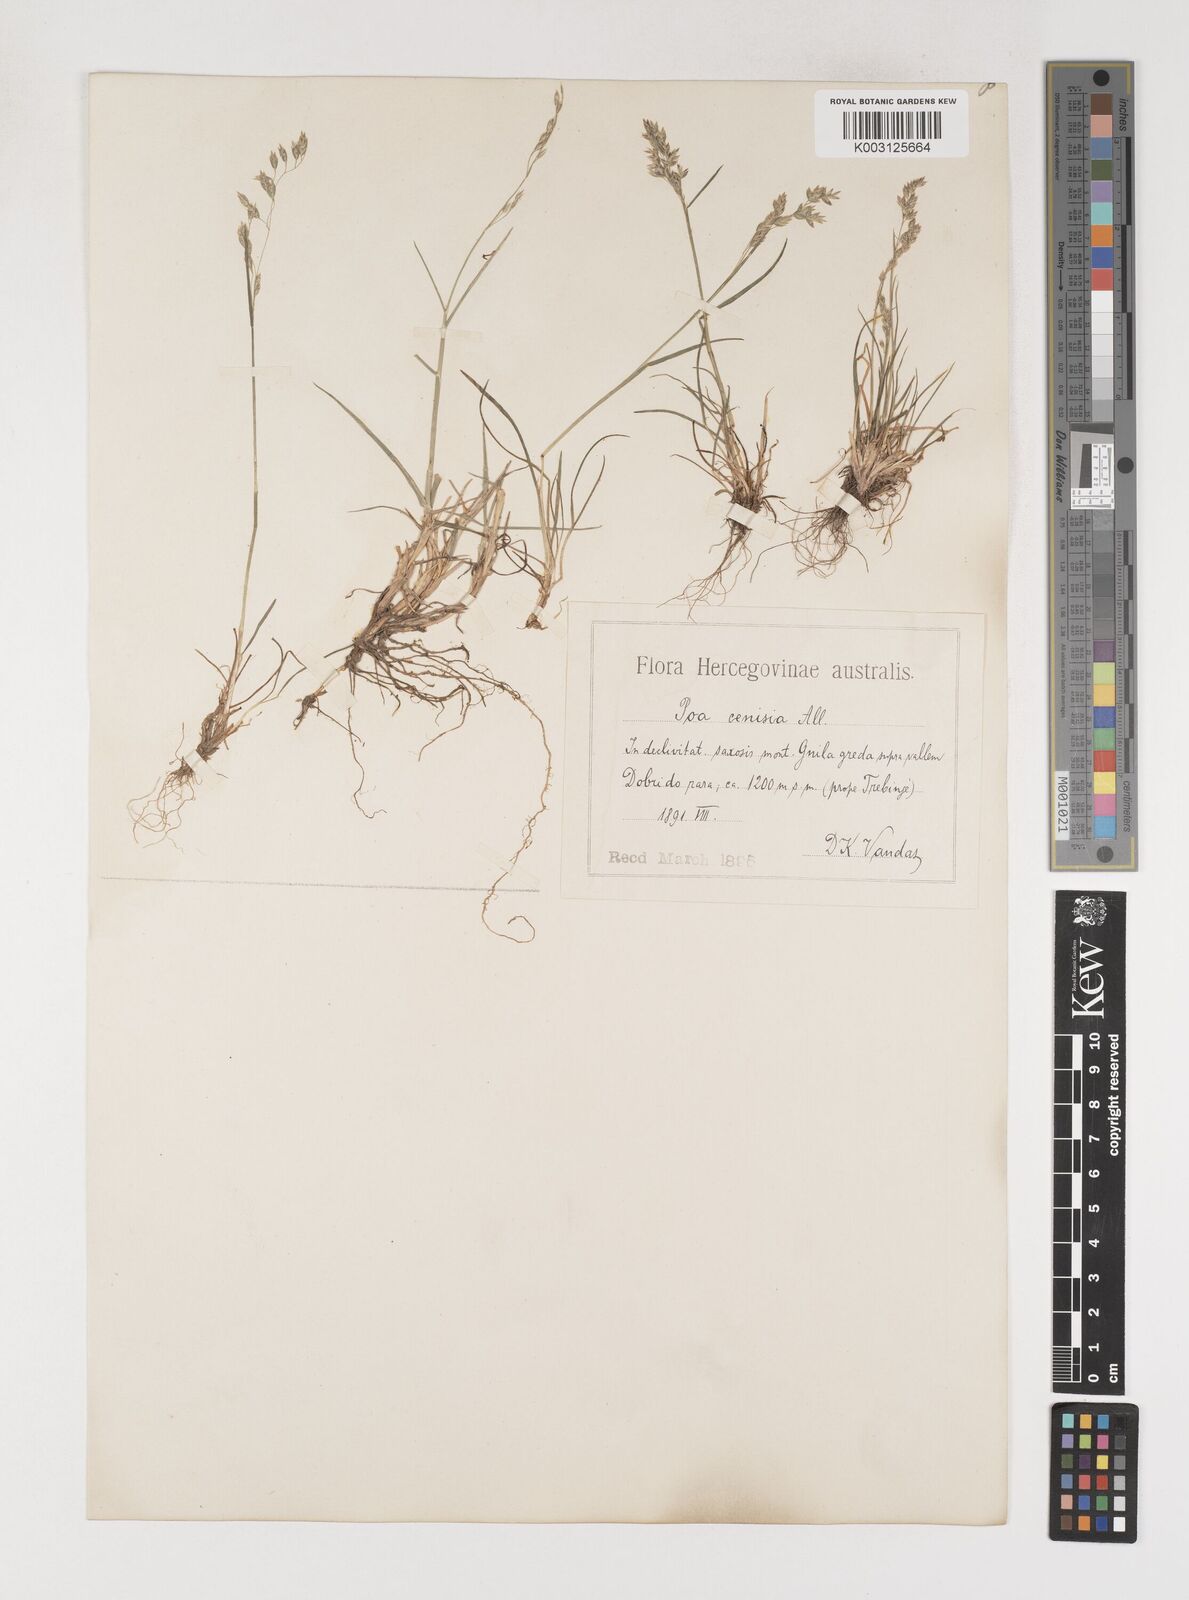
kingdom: Plantae
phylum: Tracheophyta
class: Liliopsida
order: Poales
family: Poaceae
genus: Poa
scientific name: Poa
